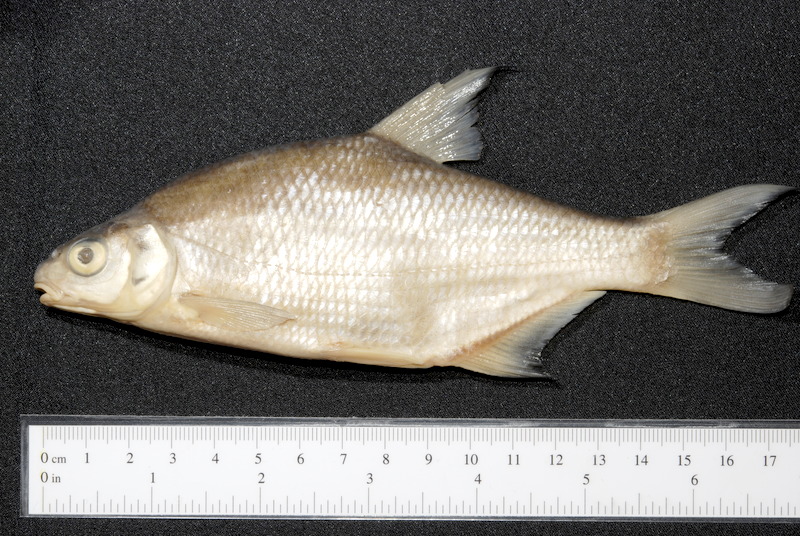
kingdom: Animalia
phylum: Chordata
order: Cypriniformes
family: Cyprinidae
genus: Abramis
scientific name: Abramis
